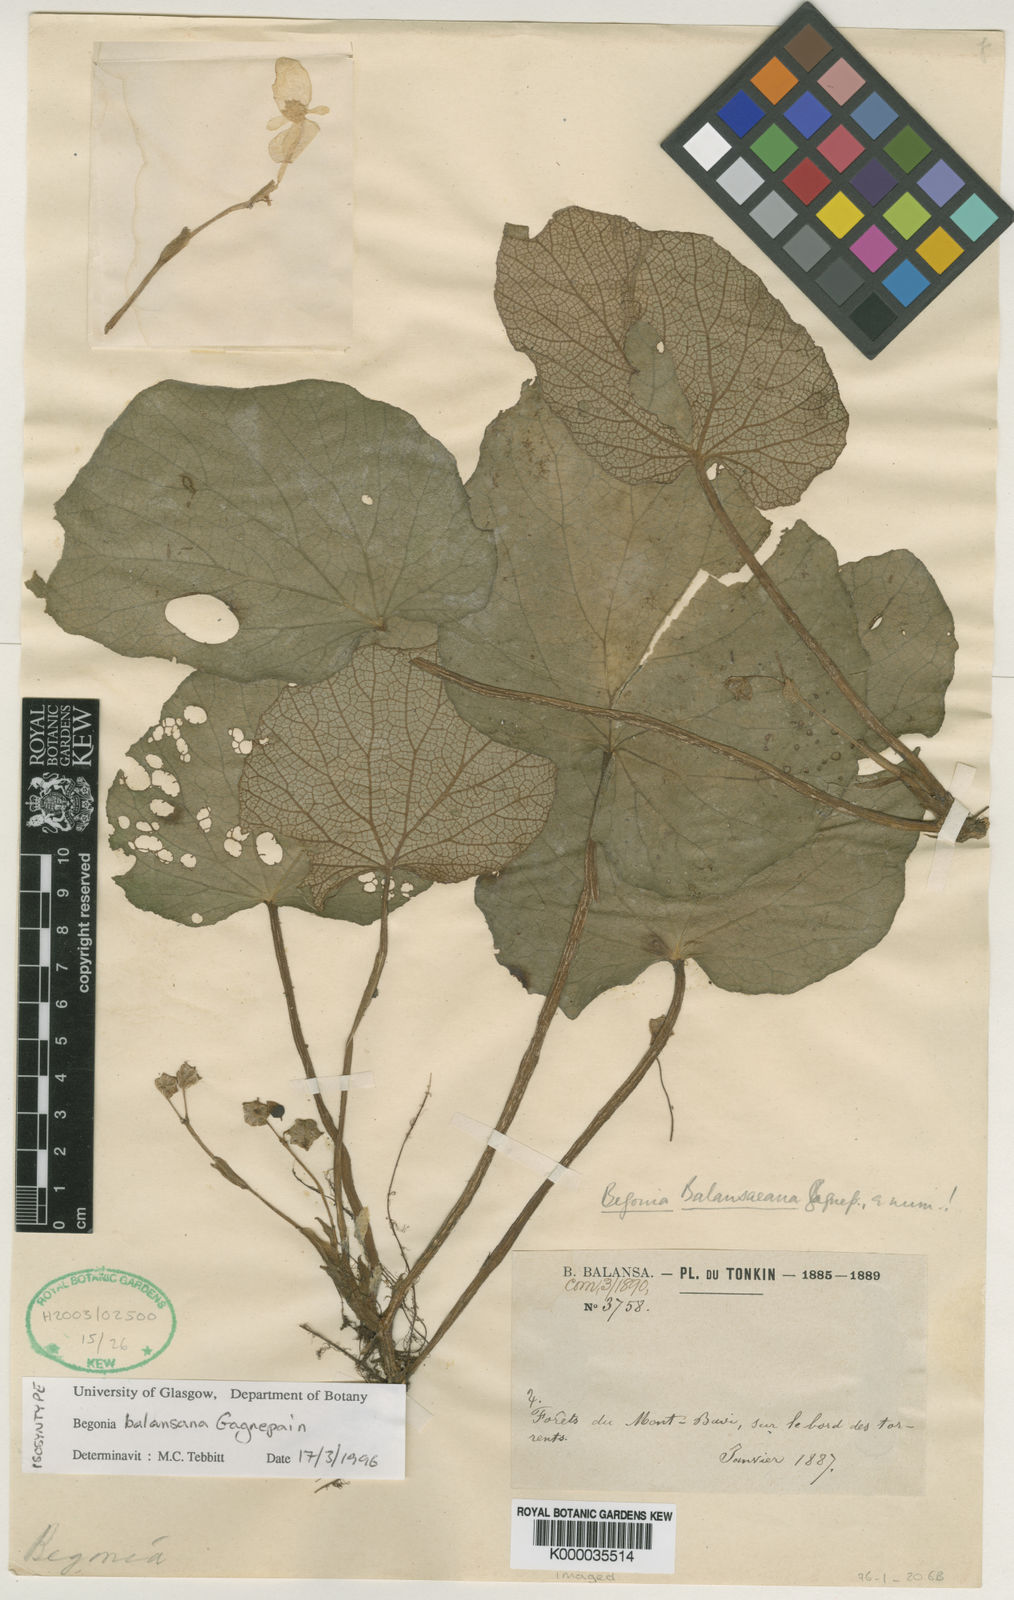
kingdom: Plantae
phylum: Tracheophyta
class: Magnoliopsida
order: Cucurbitales
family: Begoniaceae
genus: Begonia
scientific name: Begonia balansana
